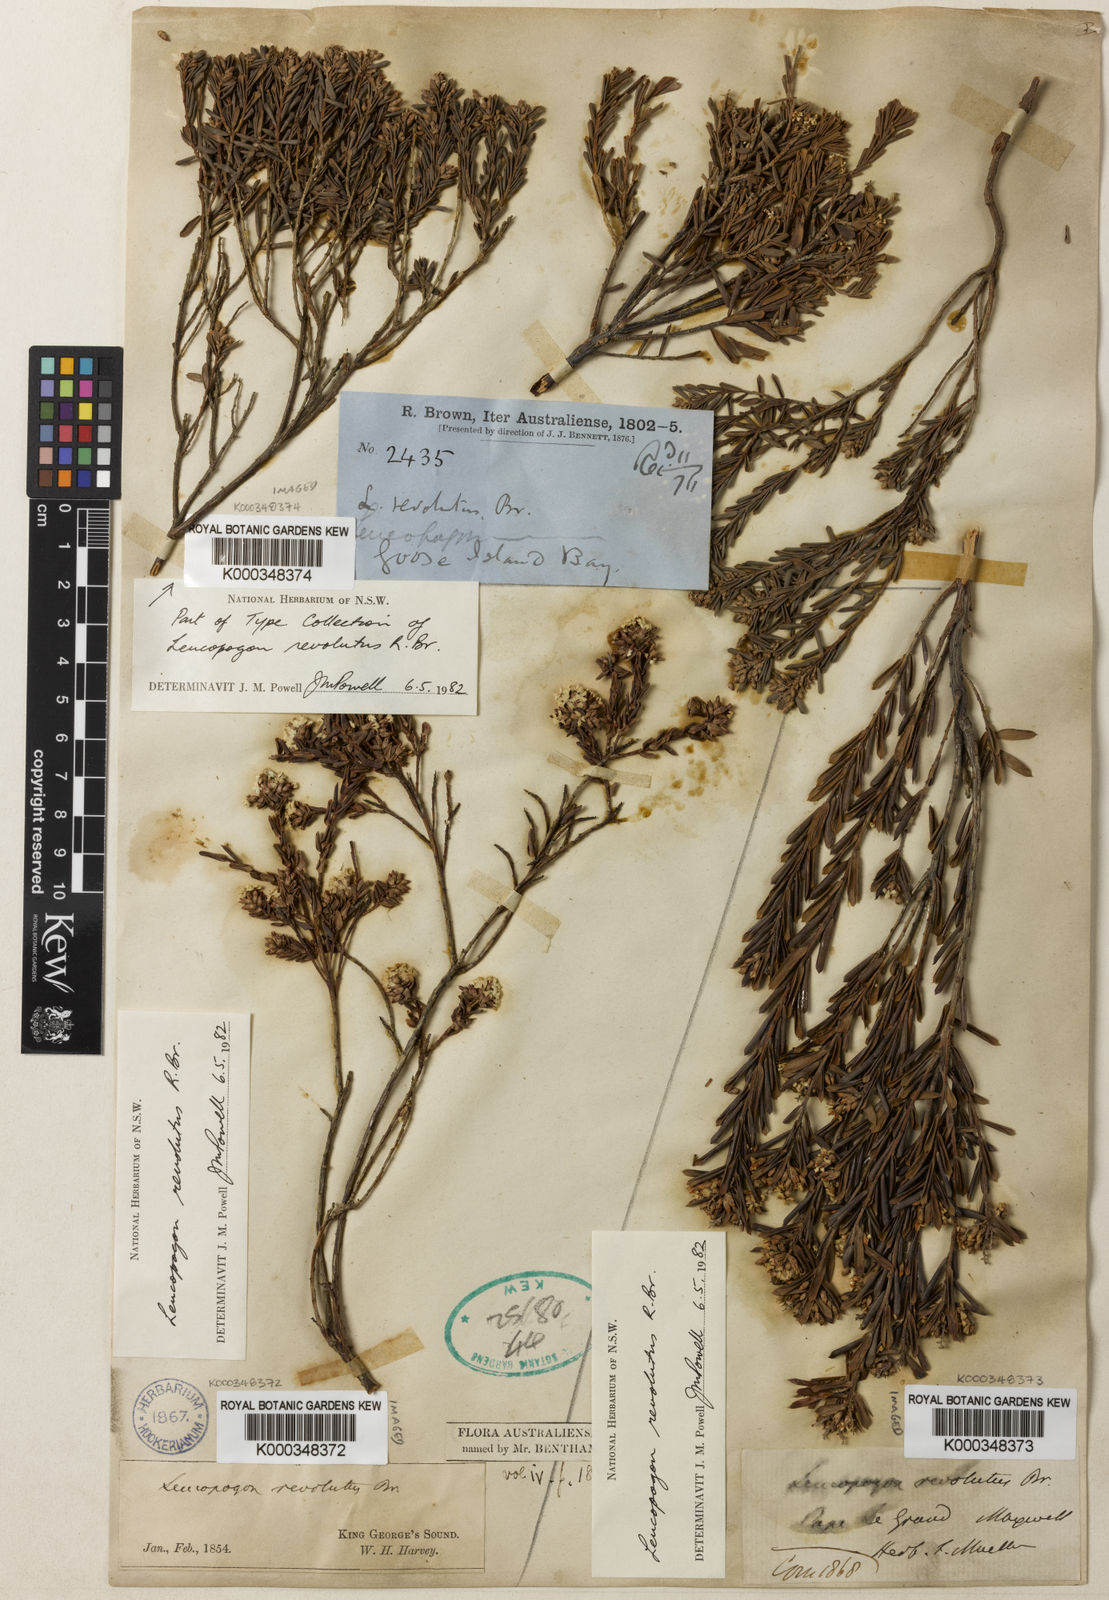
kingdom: Plantae
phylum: Tracheophyta
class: Magnoliopsida
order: Ericales
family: Ericaceae
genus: Leucopogon
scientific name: Leucopogon obovatus
